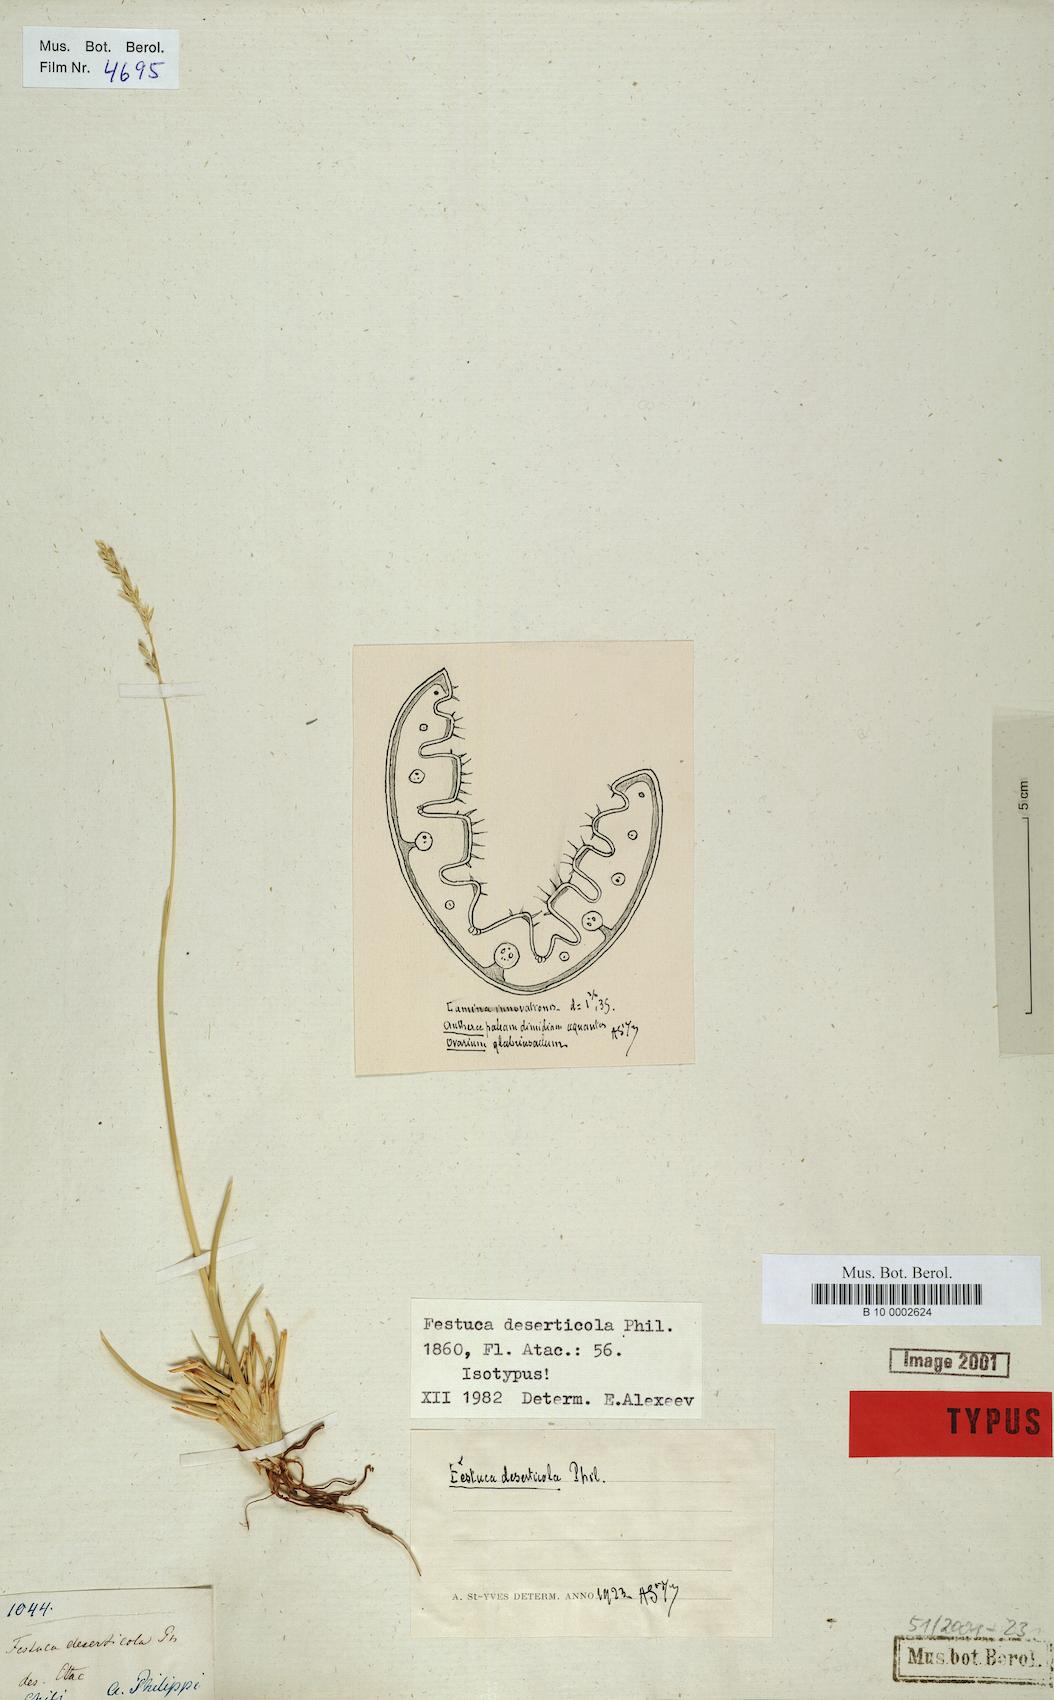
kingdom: Plantae
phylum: Tracheophyta
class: Liliopsida
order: Poales
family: Poaceae
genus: Festuca
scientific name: Festuca rigescens
